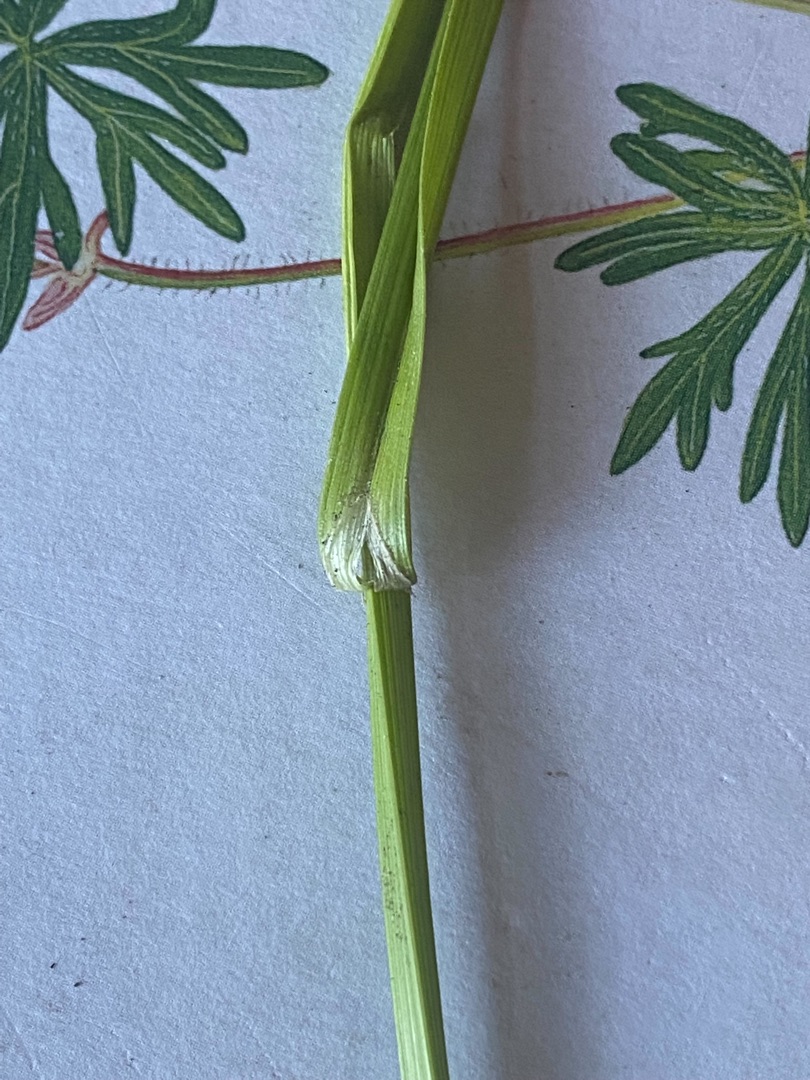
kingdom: Plantae
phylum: Tracheophyta
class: Liliopsida
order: Poales
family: Cyperaceae
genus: Carex
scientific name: Carex otrubae
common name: Sylt-star
